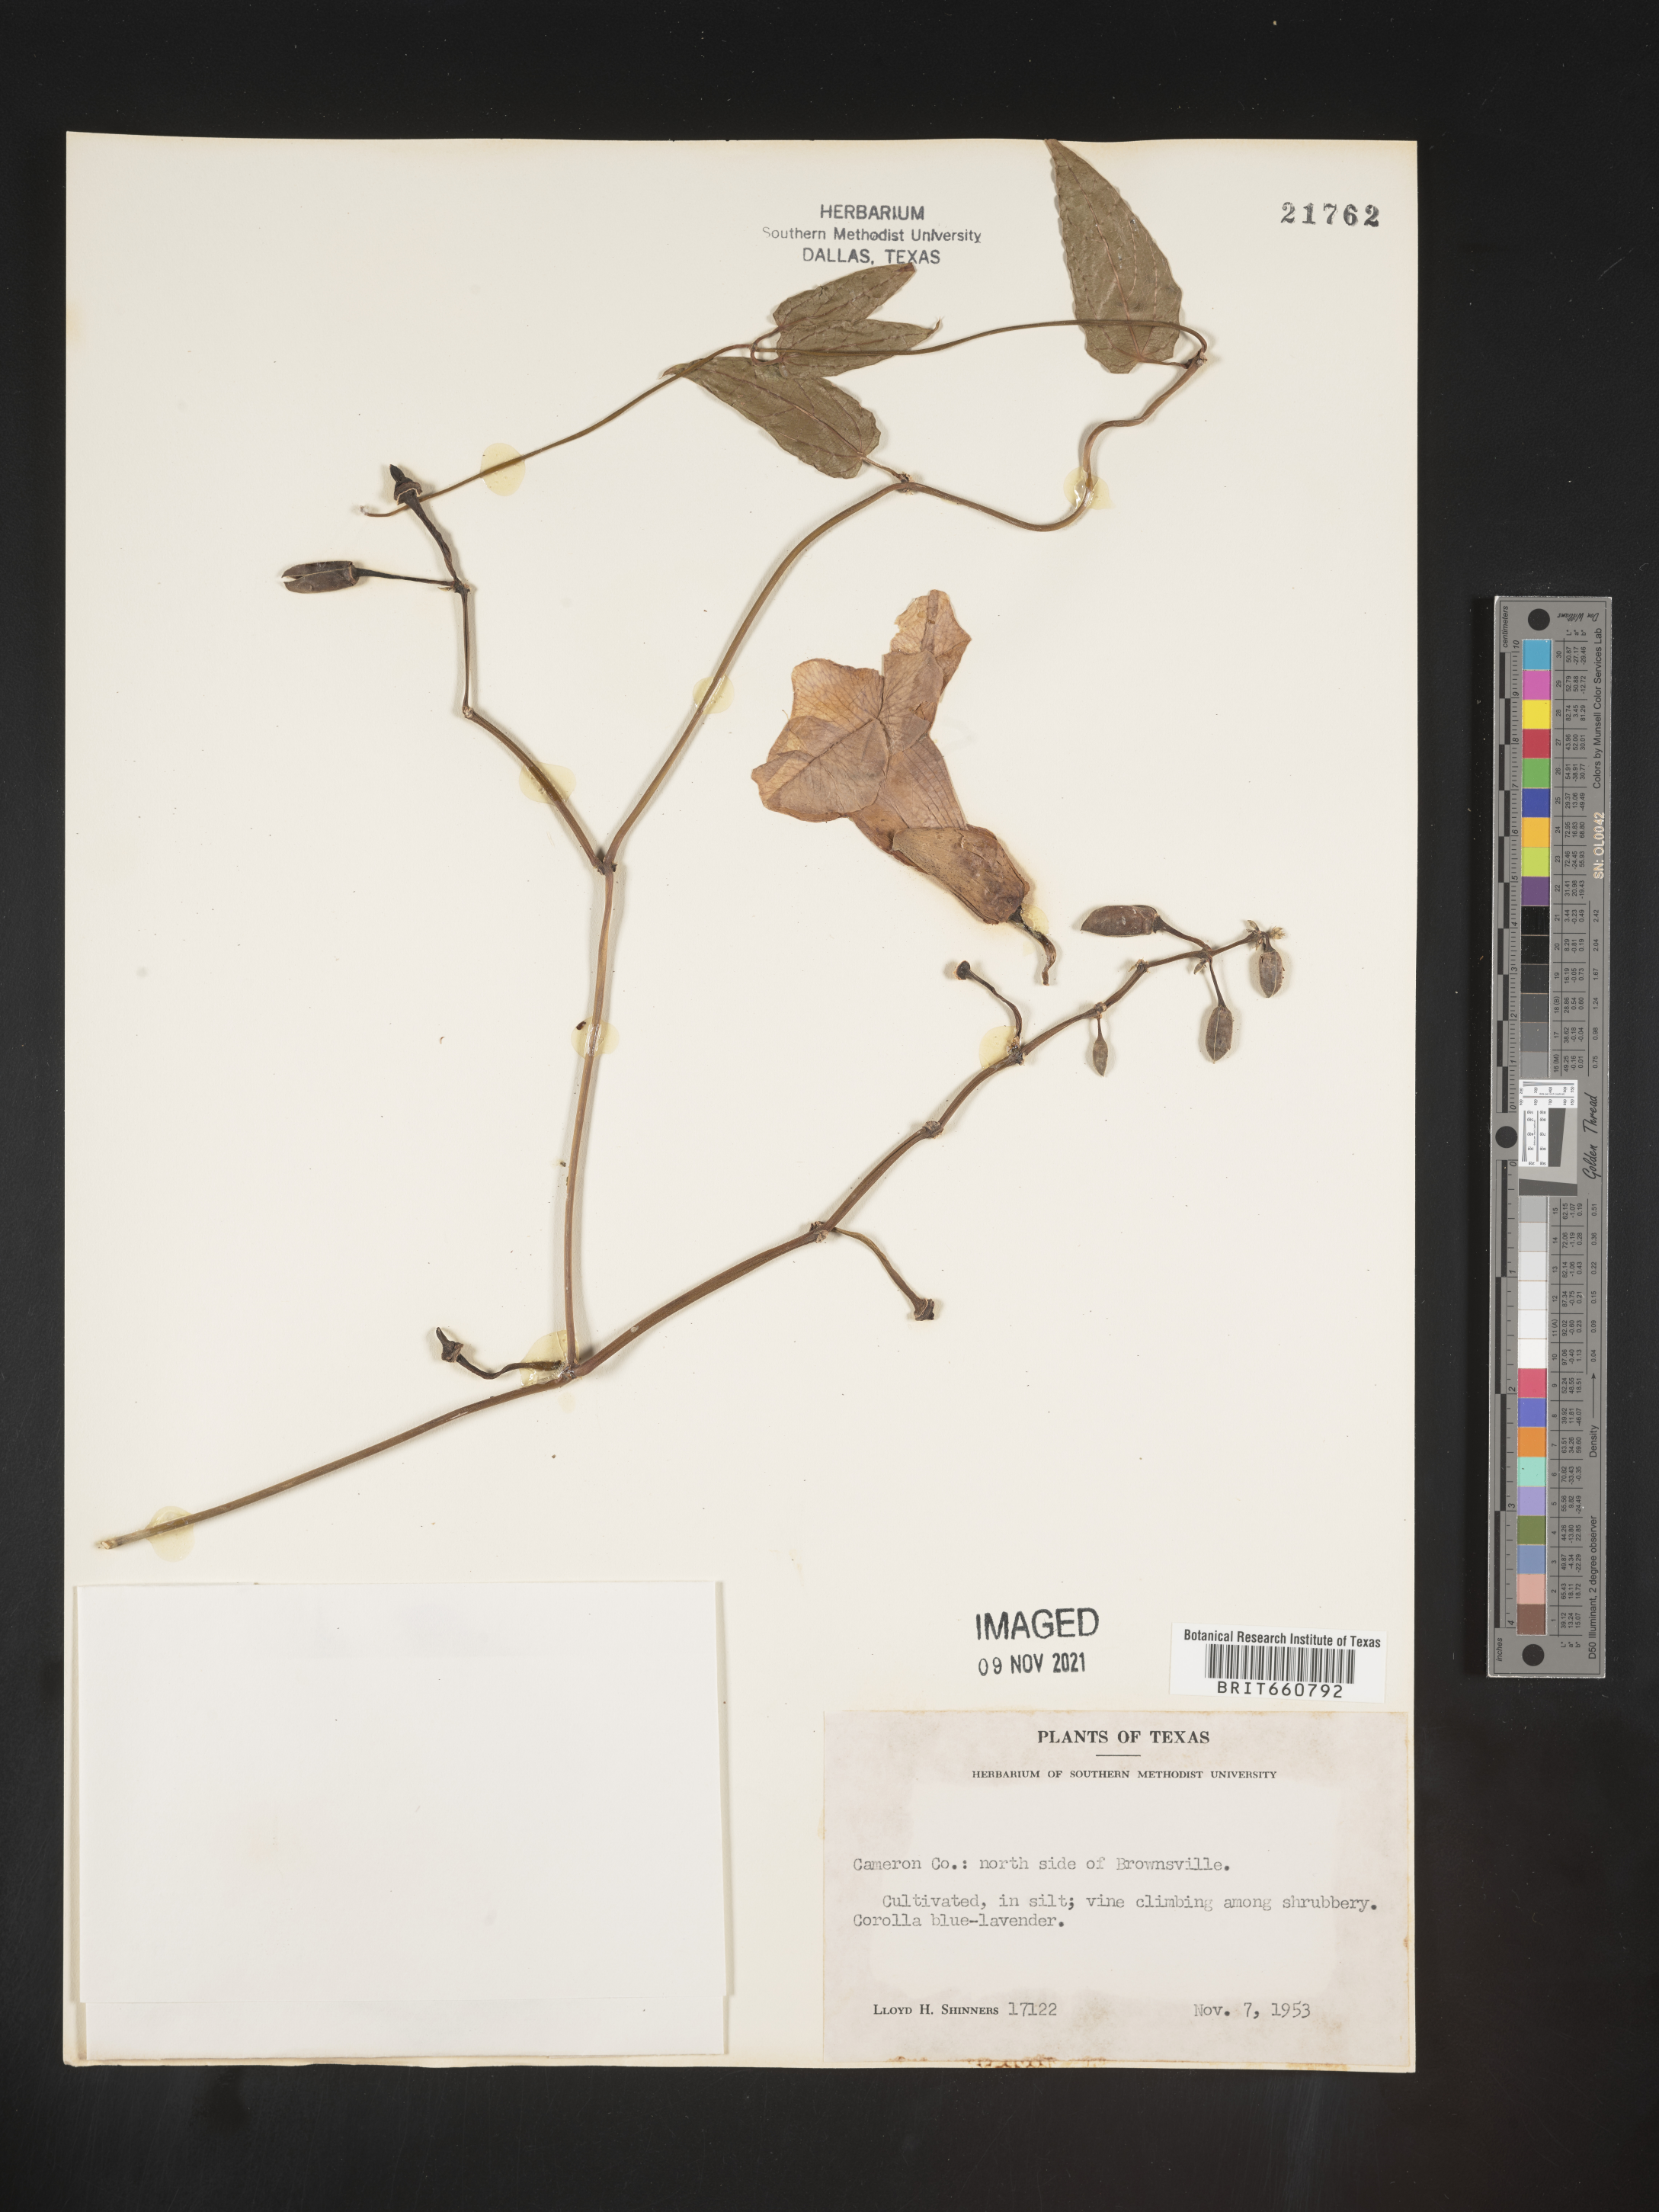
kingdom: Plantae
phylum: Tracheophyta
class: Magnoliopsida
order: Lamiales
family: Acanthaceae
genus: Thunbergia
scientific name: Thunbergia
